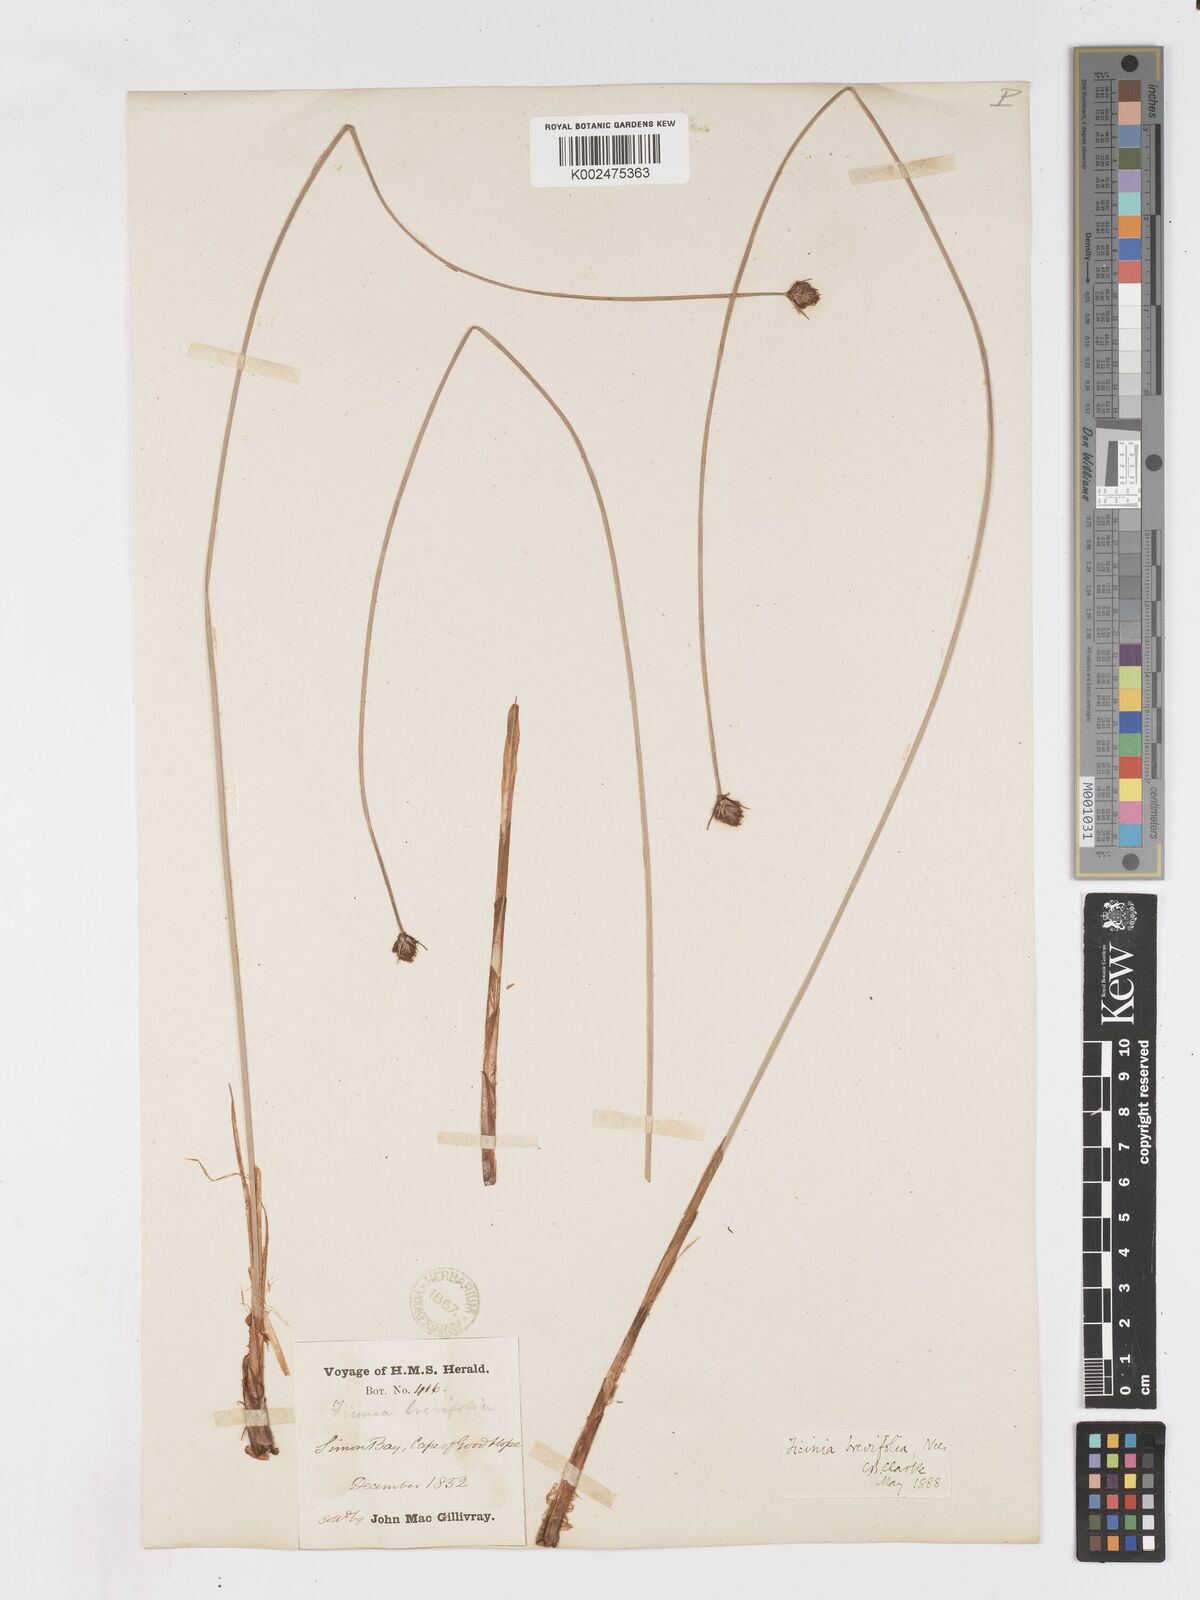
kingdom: Plantae
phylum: Tracheophyta
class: Liliopsida
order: Poales
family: Cyperaceae
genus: Ficinia
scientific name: Ficinia brevifolia
